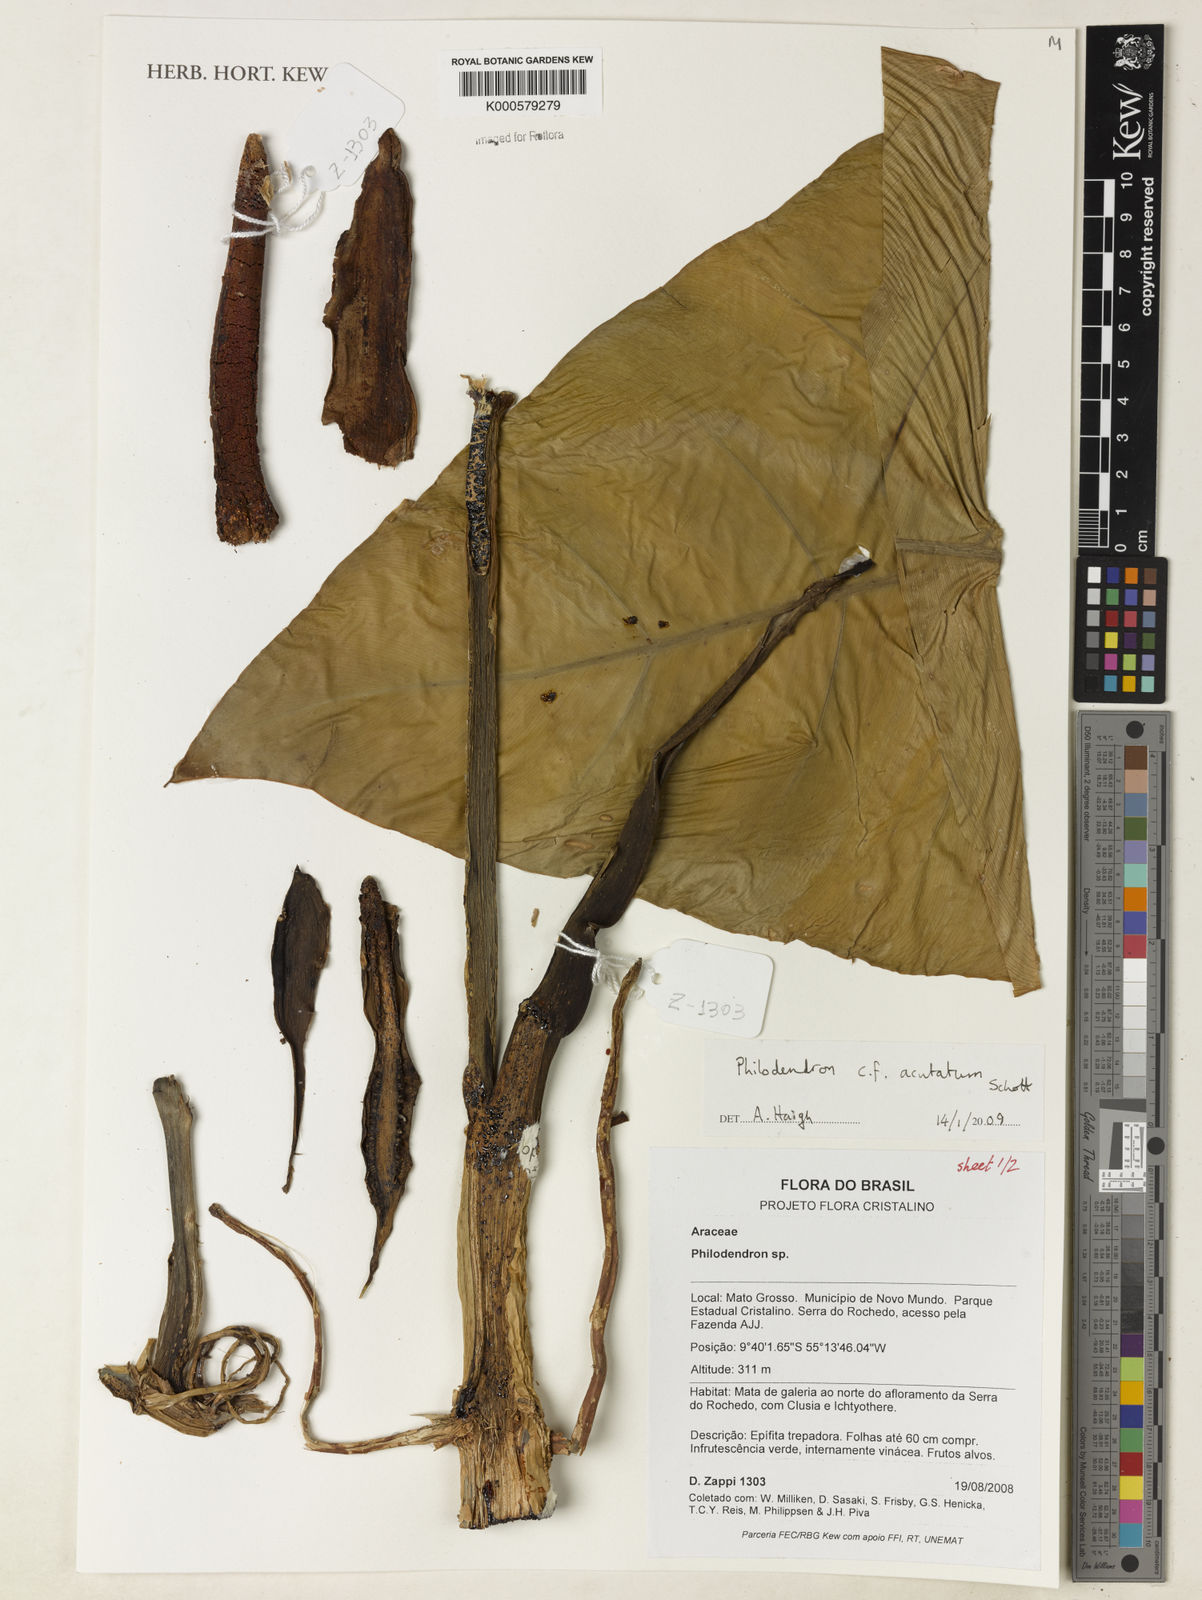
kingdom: Plantae
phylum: Tracheophyta
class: Liliopsida
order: Alismatales
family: Araceae
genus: Philodendron
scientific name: Philodendron quinquenervium
